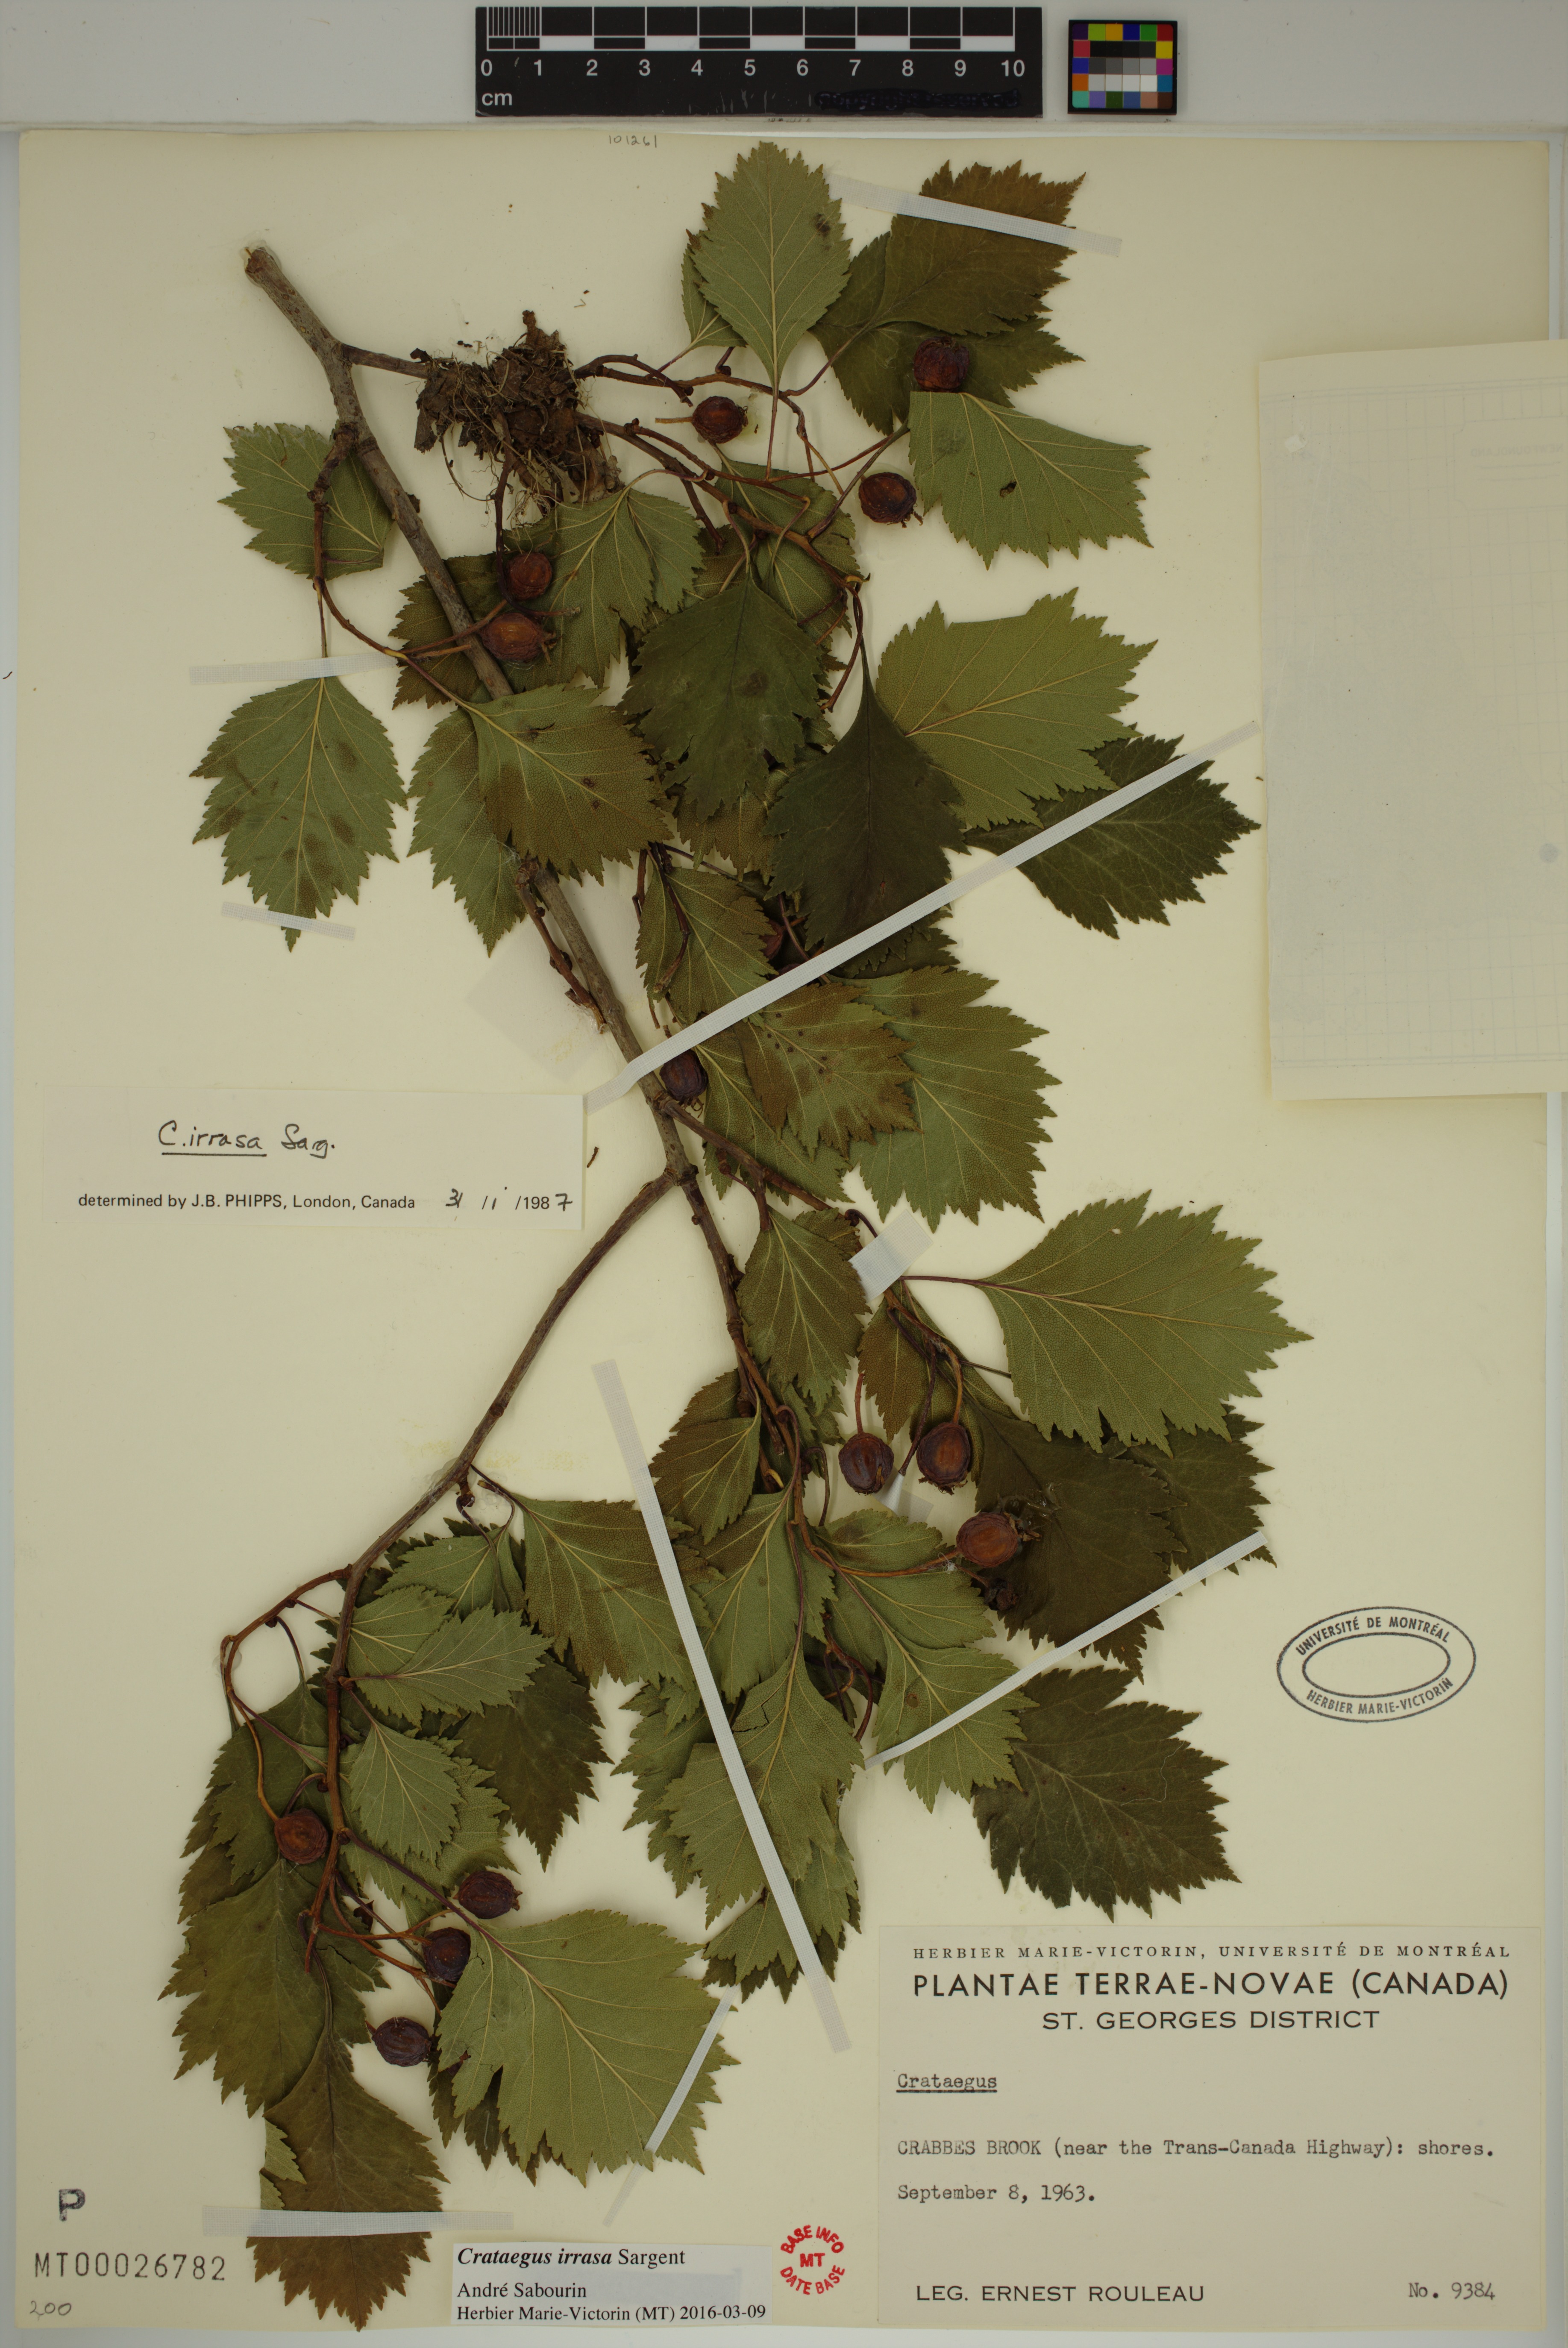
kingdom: Plantae
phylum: Tracheophyta
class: Magnoliopsida
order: Rosales
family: Rosaceae
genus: Crataegus
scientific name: Crataegus irrasa
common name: Unshorn hawthorn
